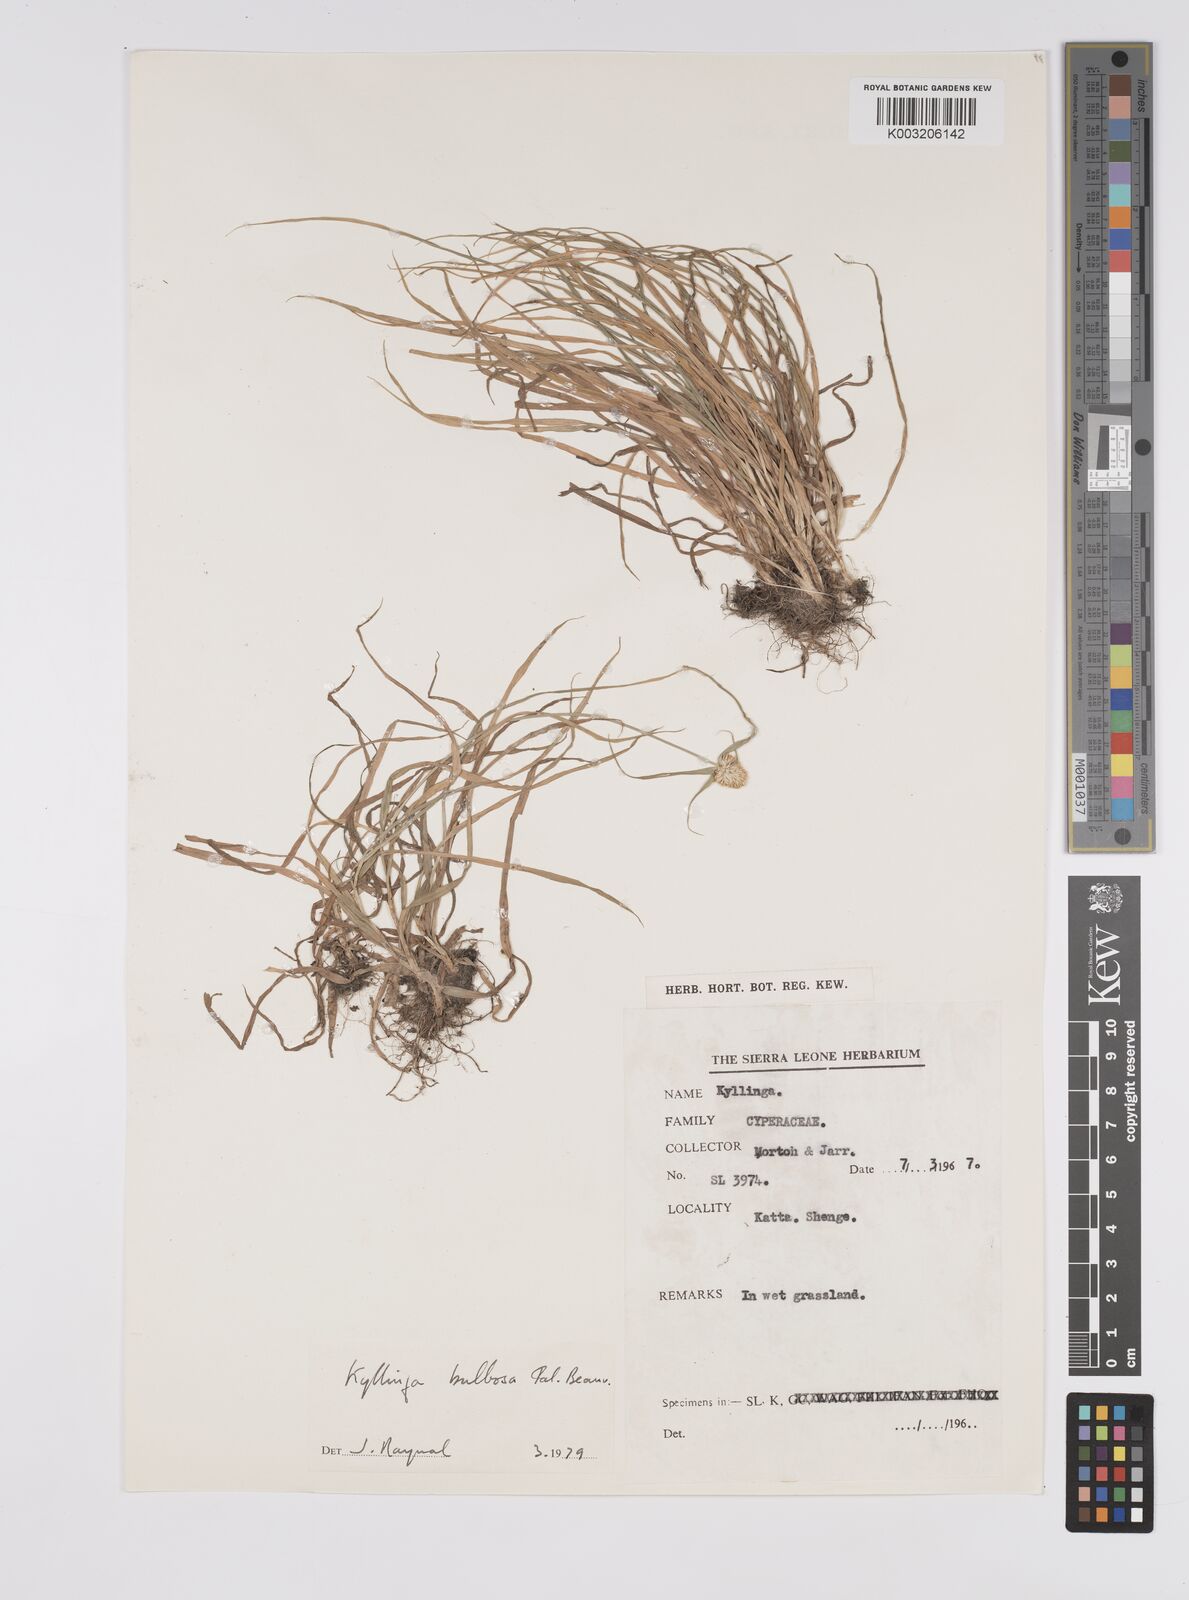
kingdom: Plantae
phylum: Tracheophyta
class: Liliopsida
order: Poales
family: Cyperaceae
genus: Cyperus
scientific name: Cyperus
